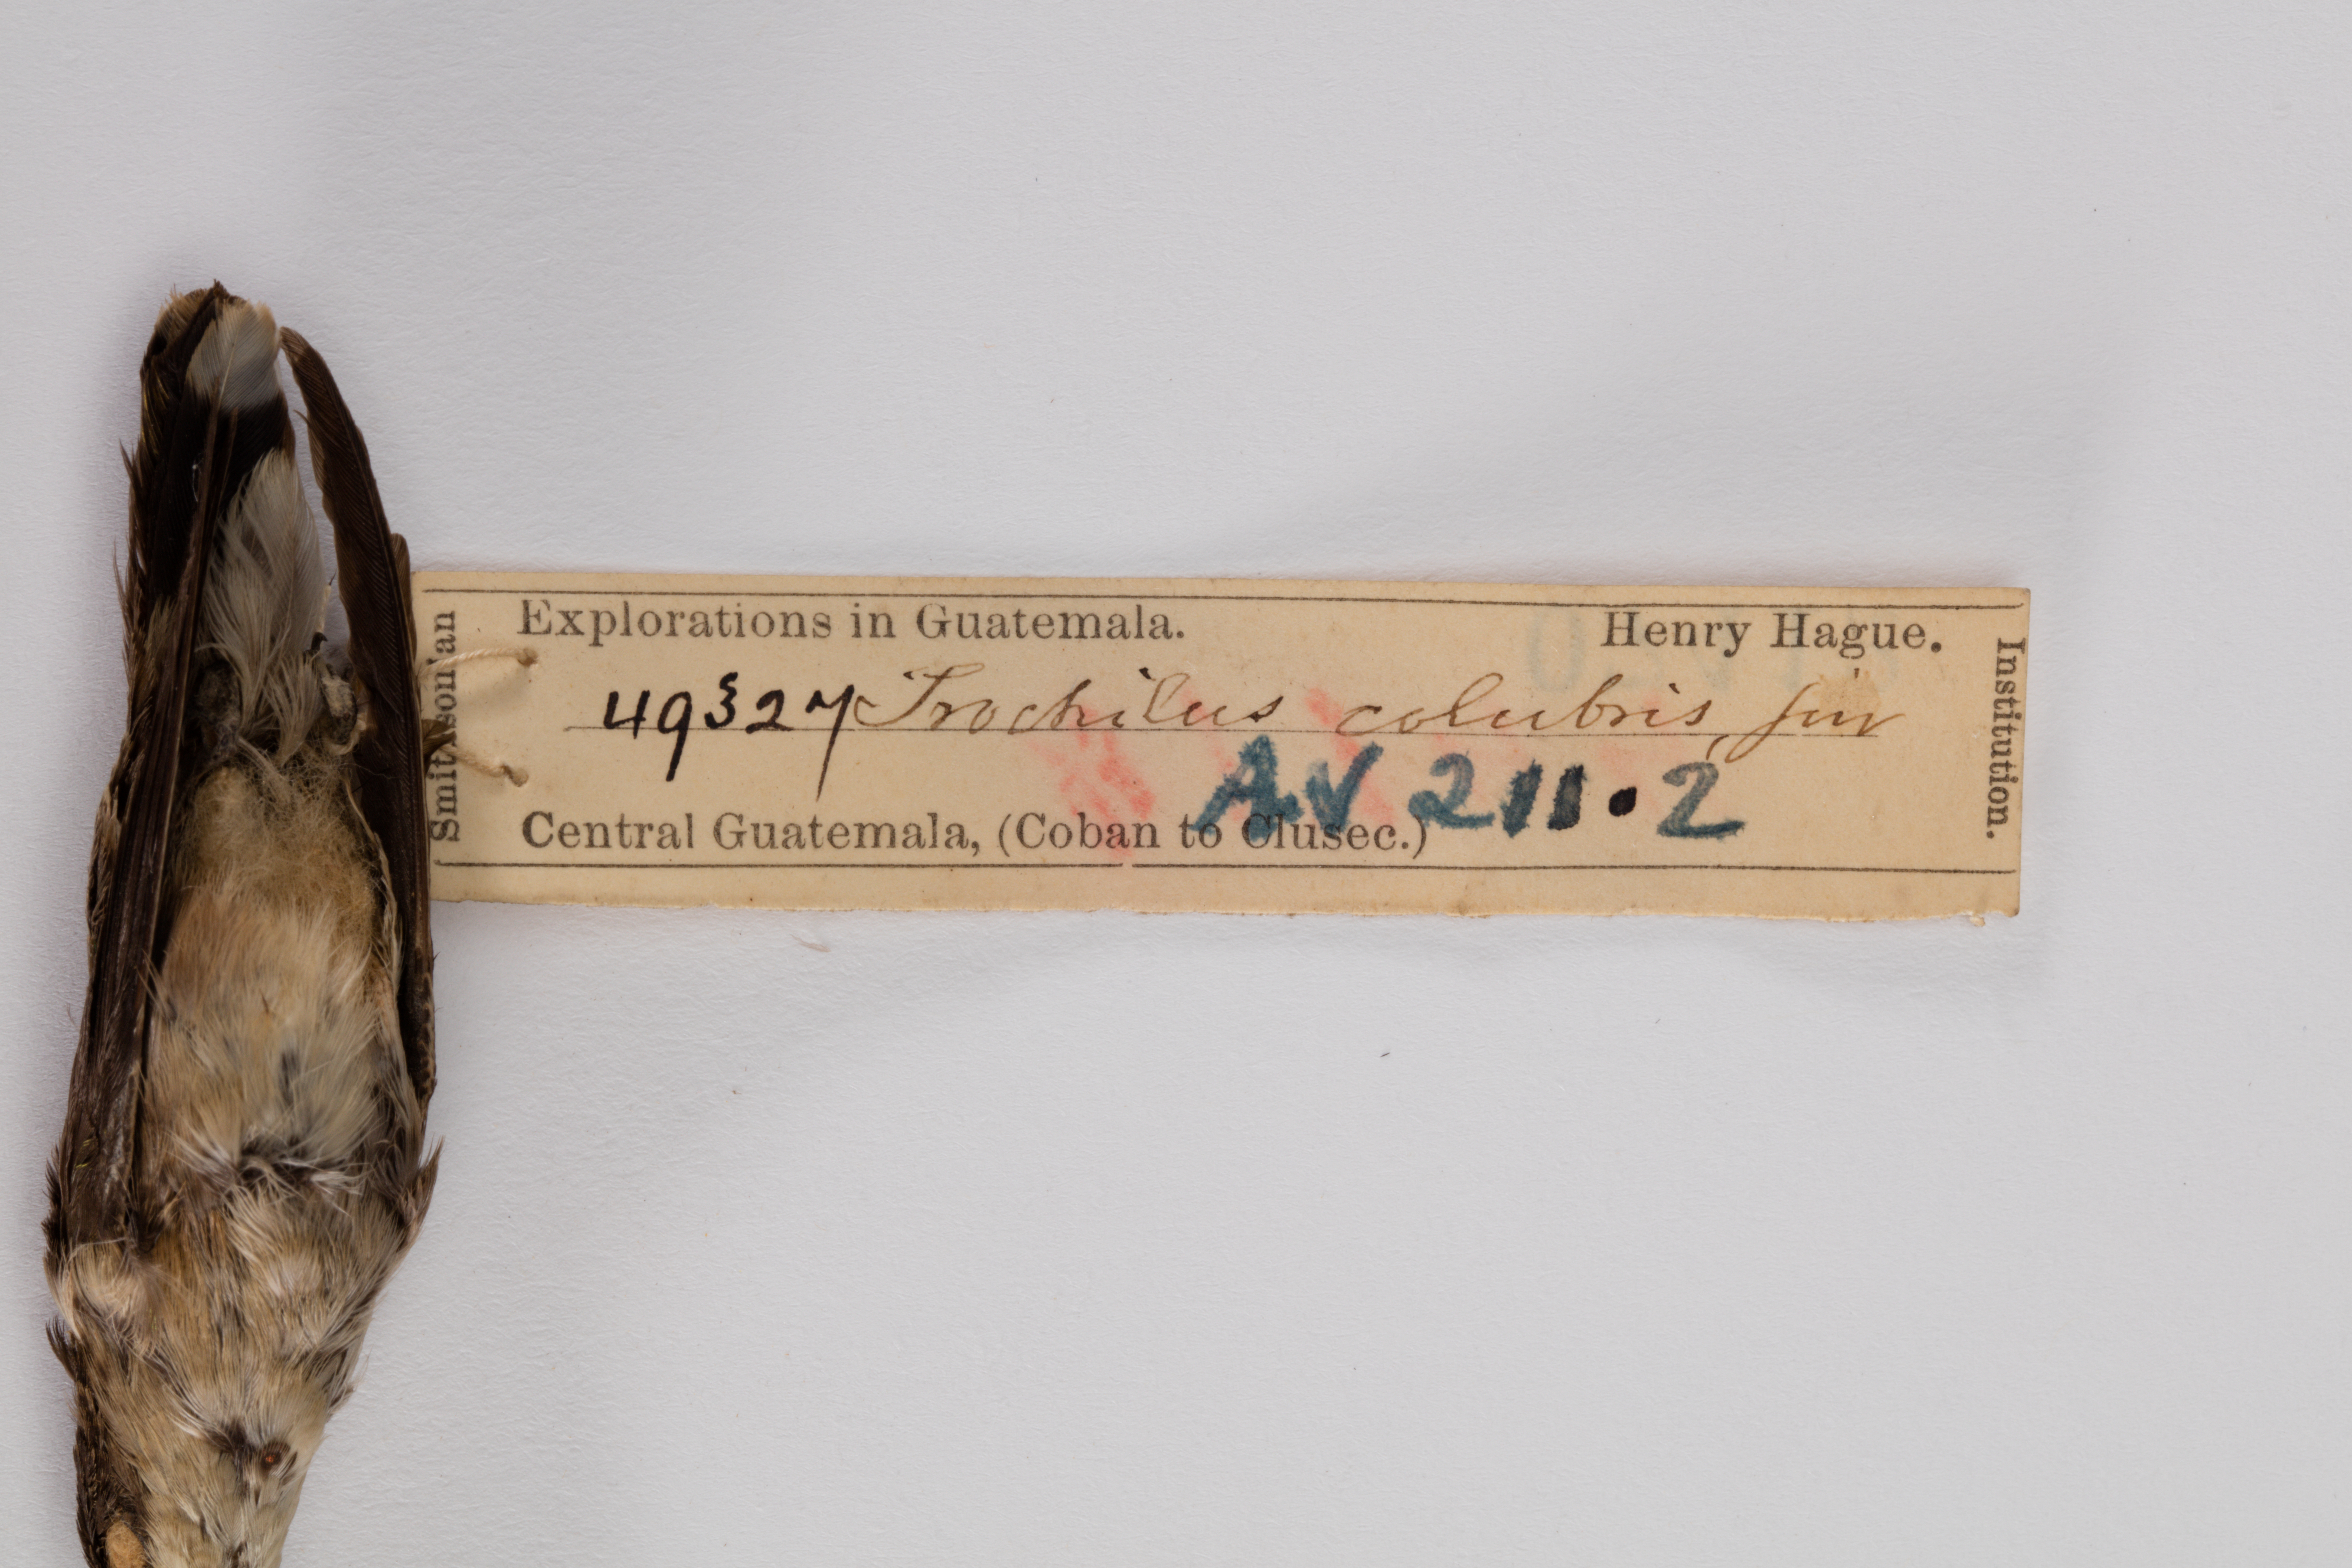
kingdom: Animalia
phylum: Chordata
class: Aves
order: Apodiformes
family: Trochilidae
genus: Archilochus
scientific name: Archilochus colubris
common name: Ruby-throated hummingbird
